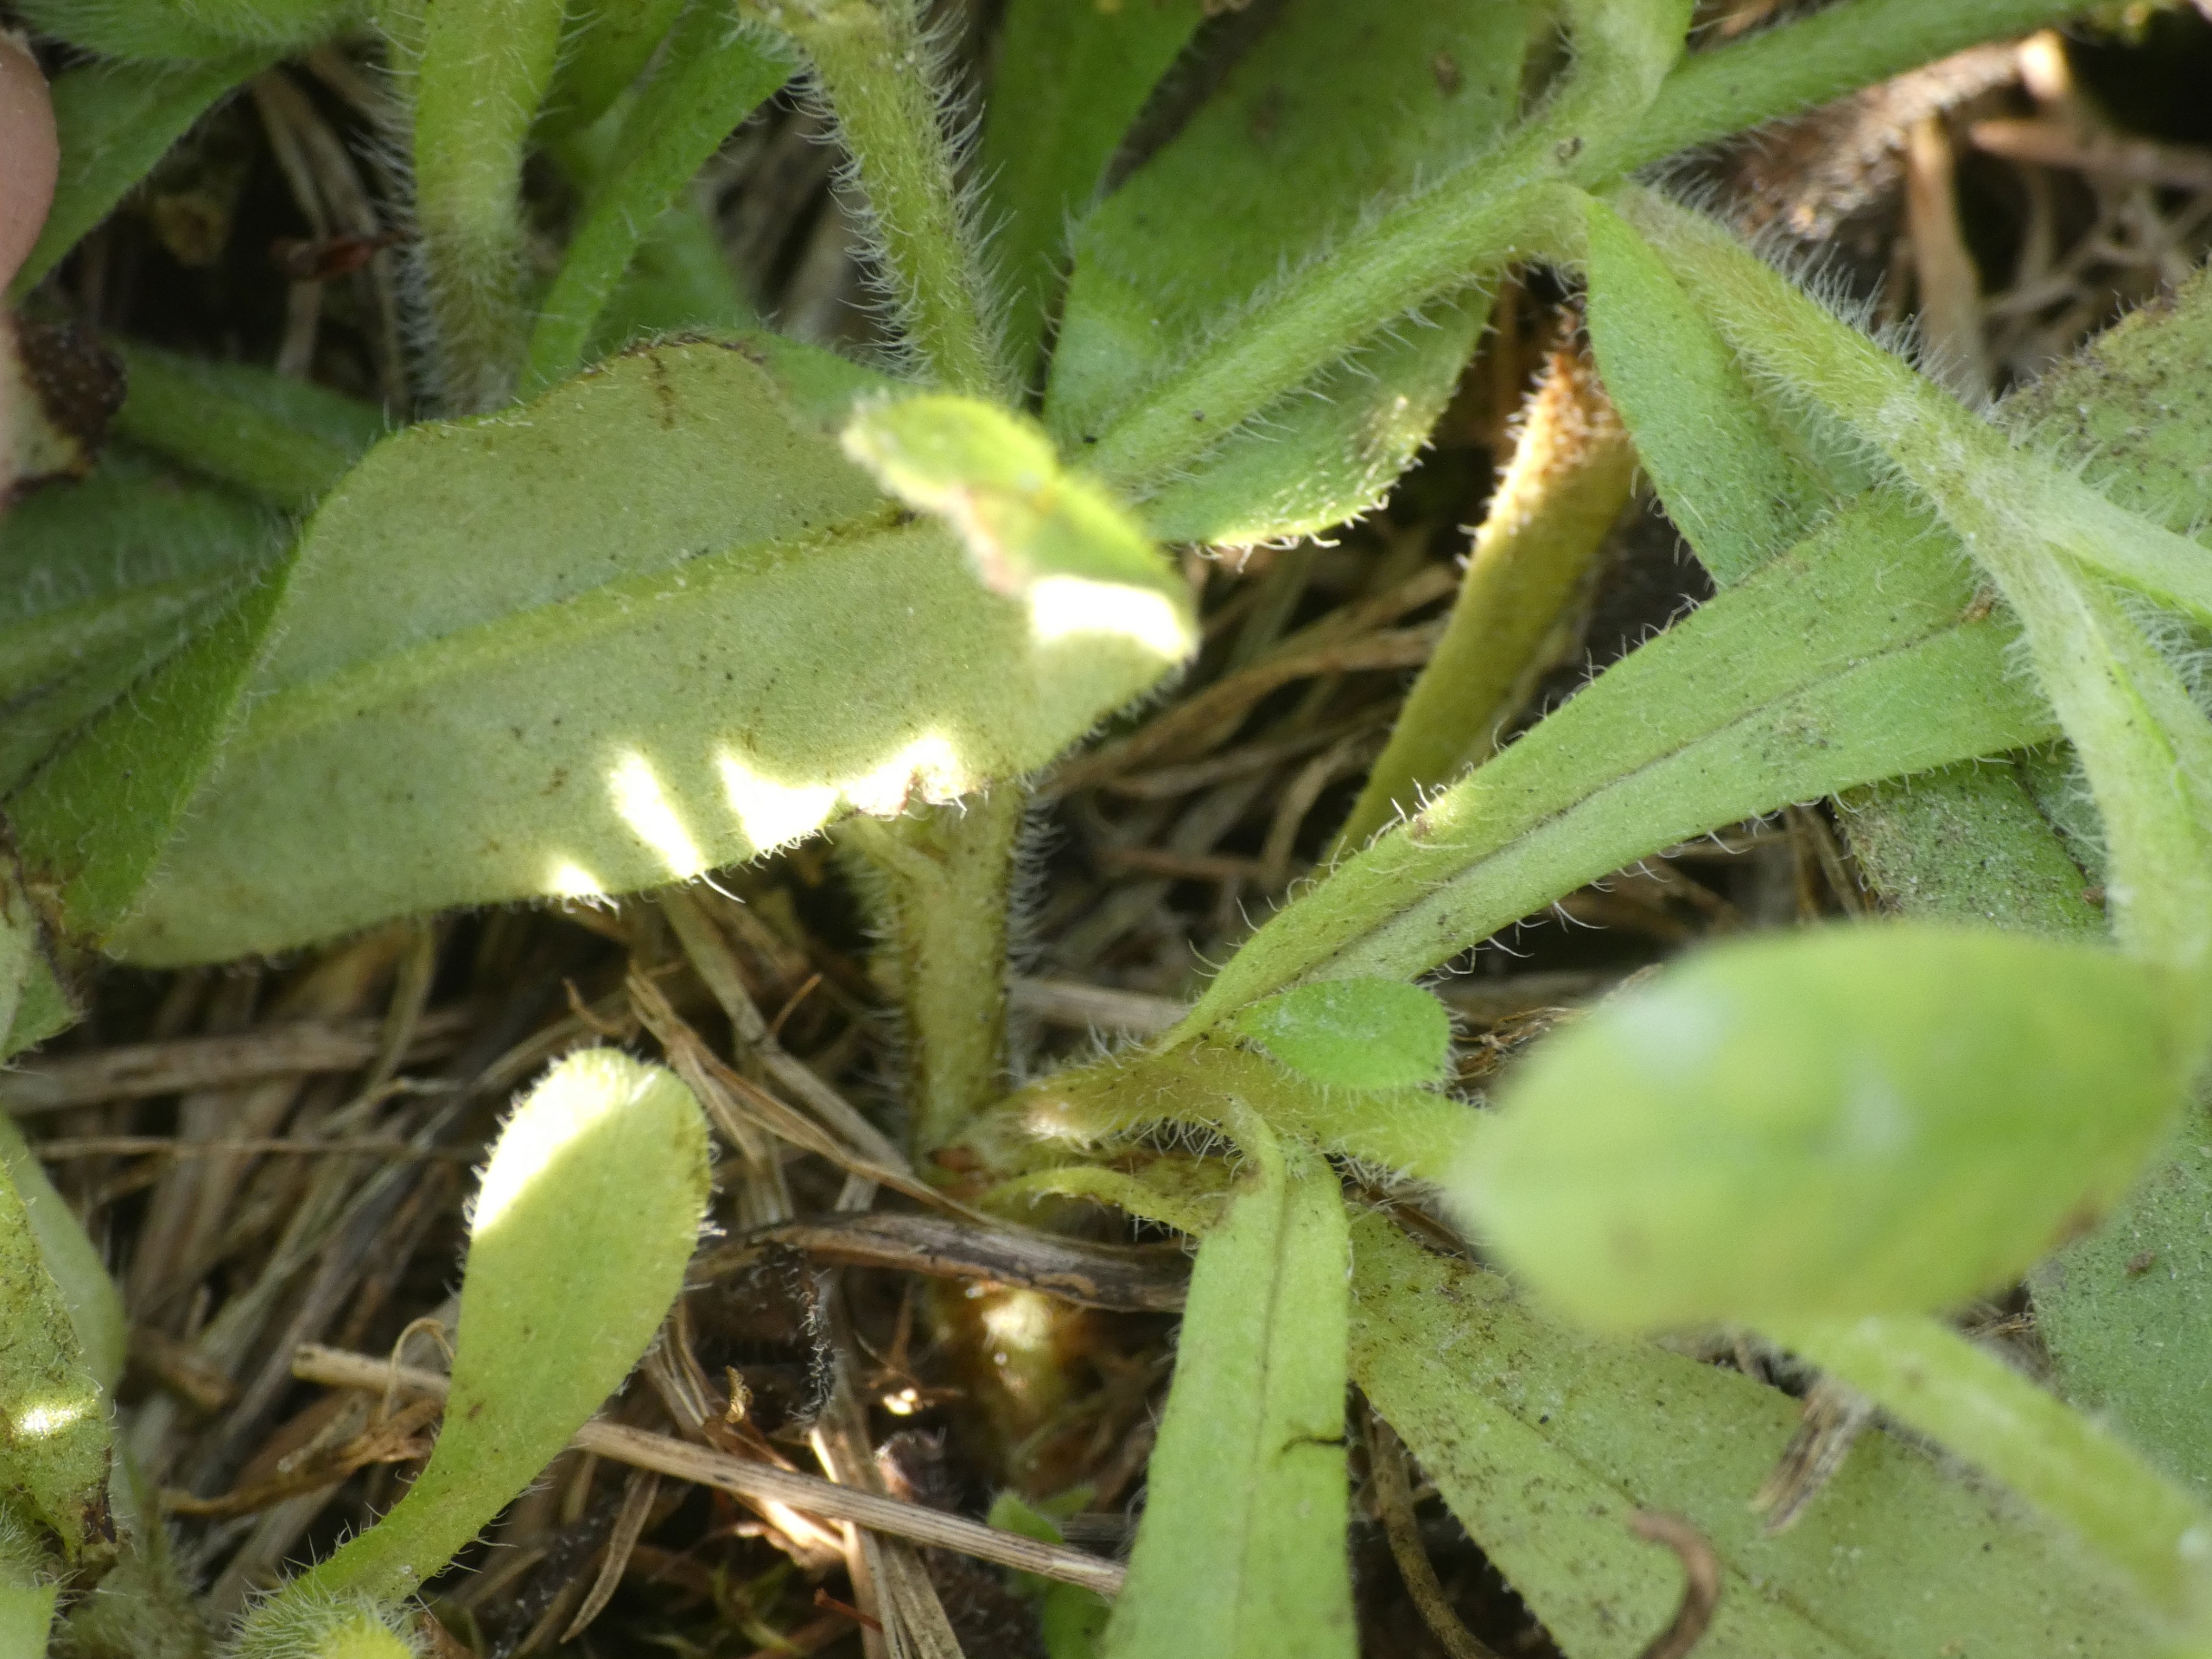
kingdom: Plantae
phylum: Tracheophyta
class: Magnoliopsida
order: Boraginales
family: Boraginaceae
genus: Myosotis
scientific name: Myosotis arvensis
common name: Mark-forglemmigej
